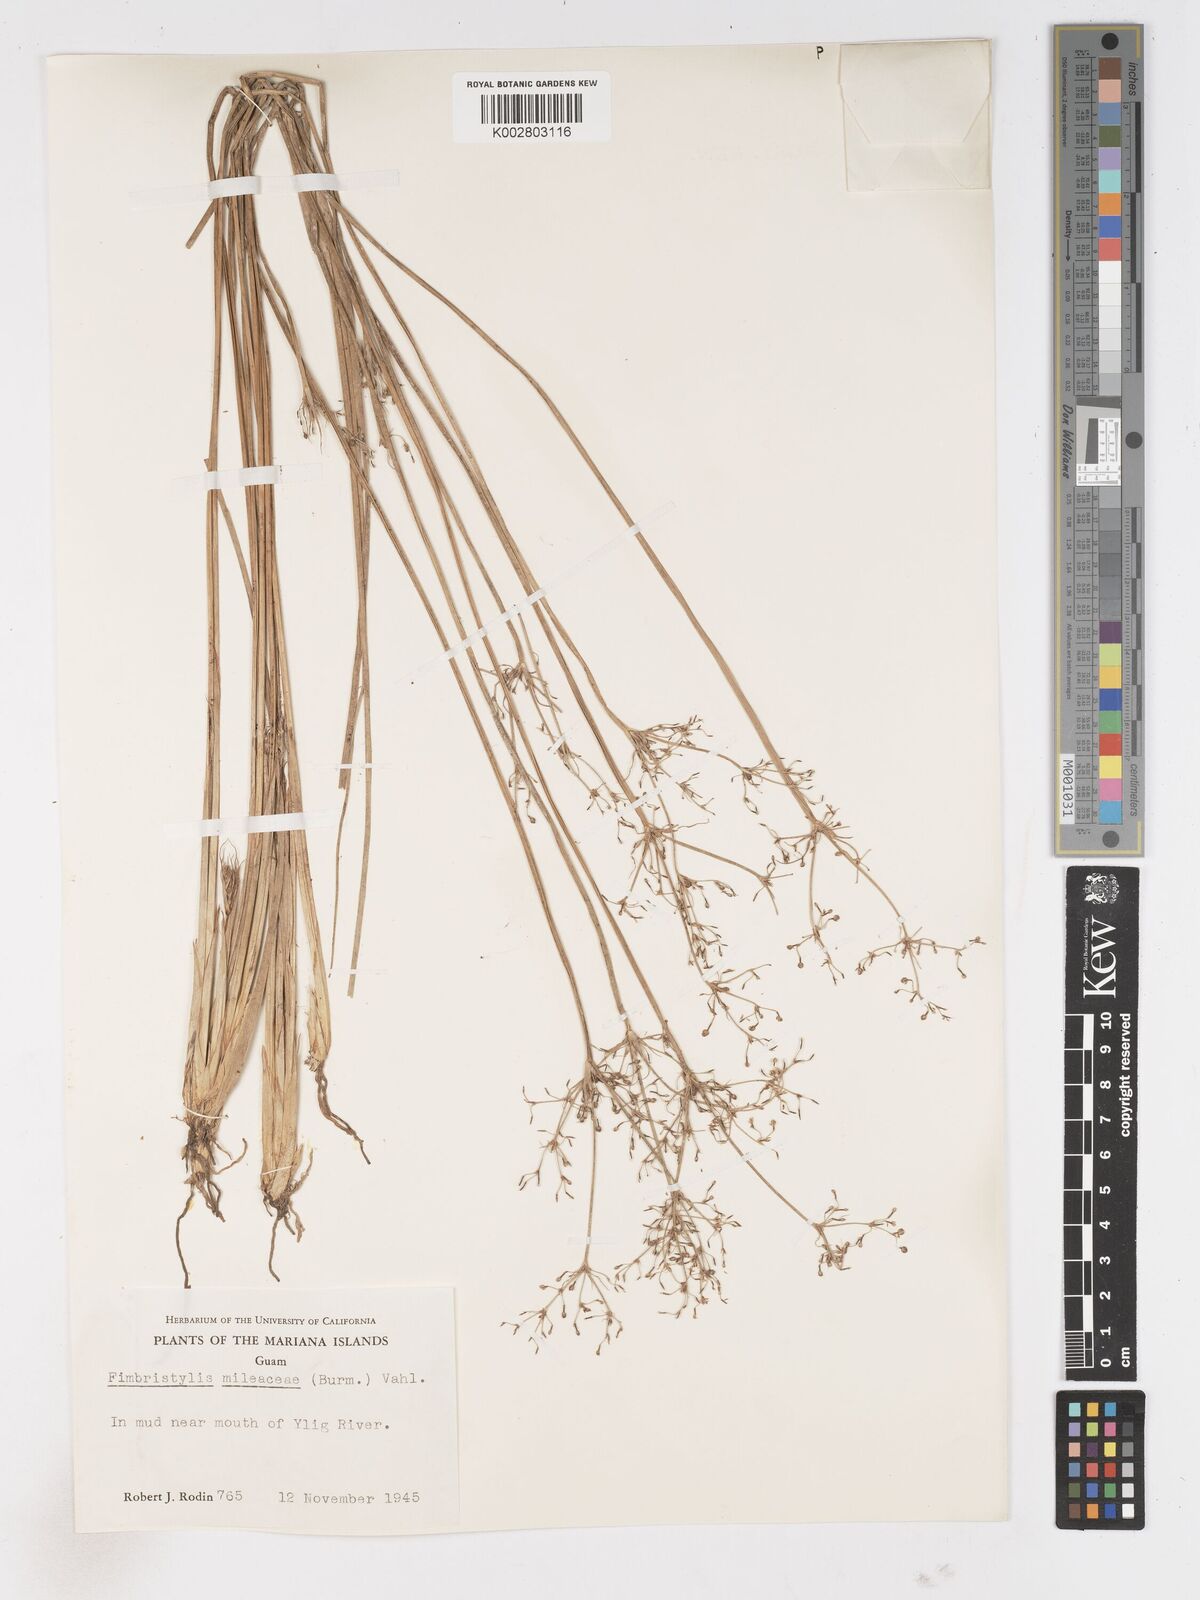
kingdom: Plantae
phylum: Tracheophyta
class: Liliopsida
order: Poales
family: Cyperaceae
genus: Fimbristylis
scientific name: Fimbristylis littoralis
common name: Fimbry
